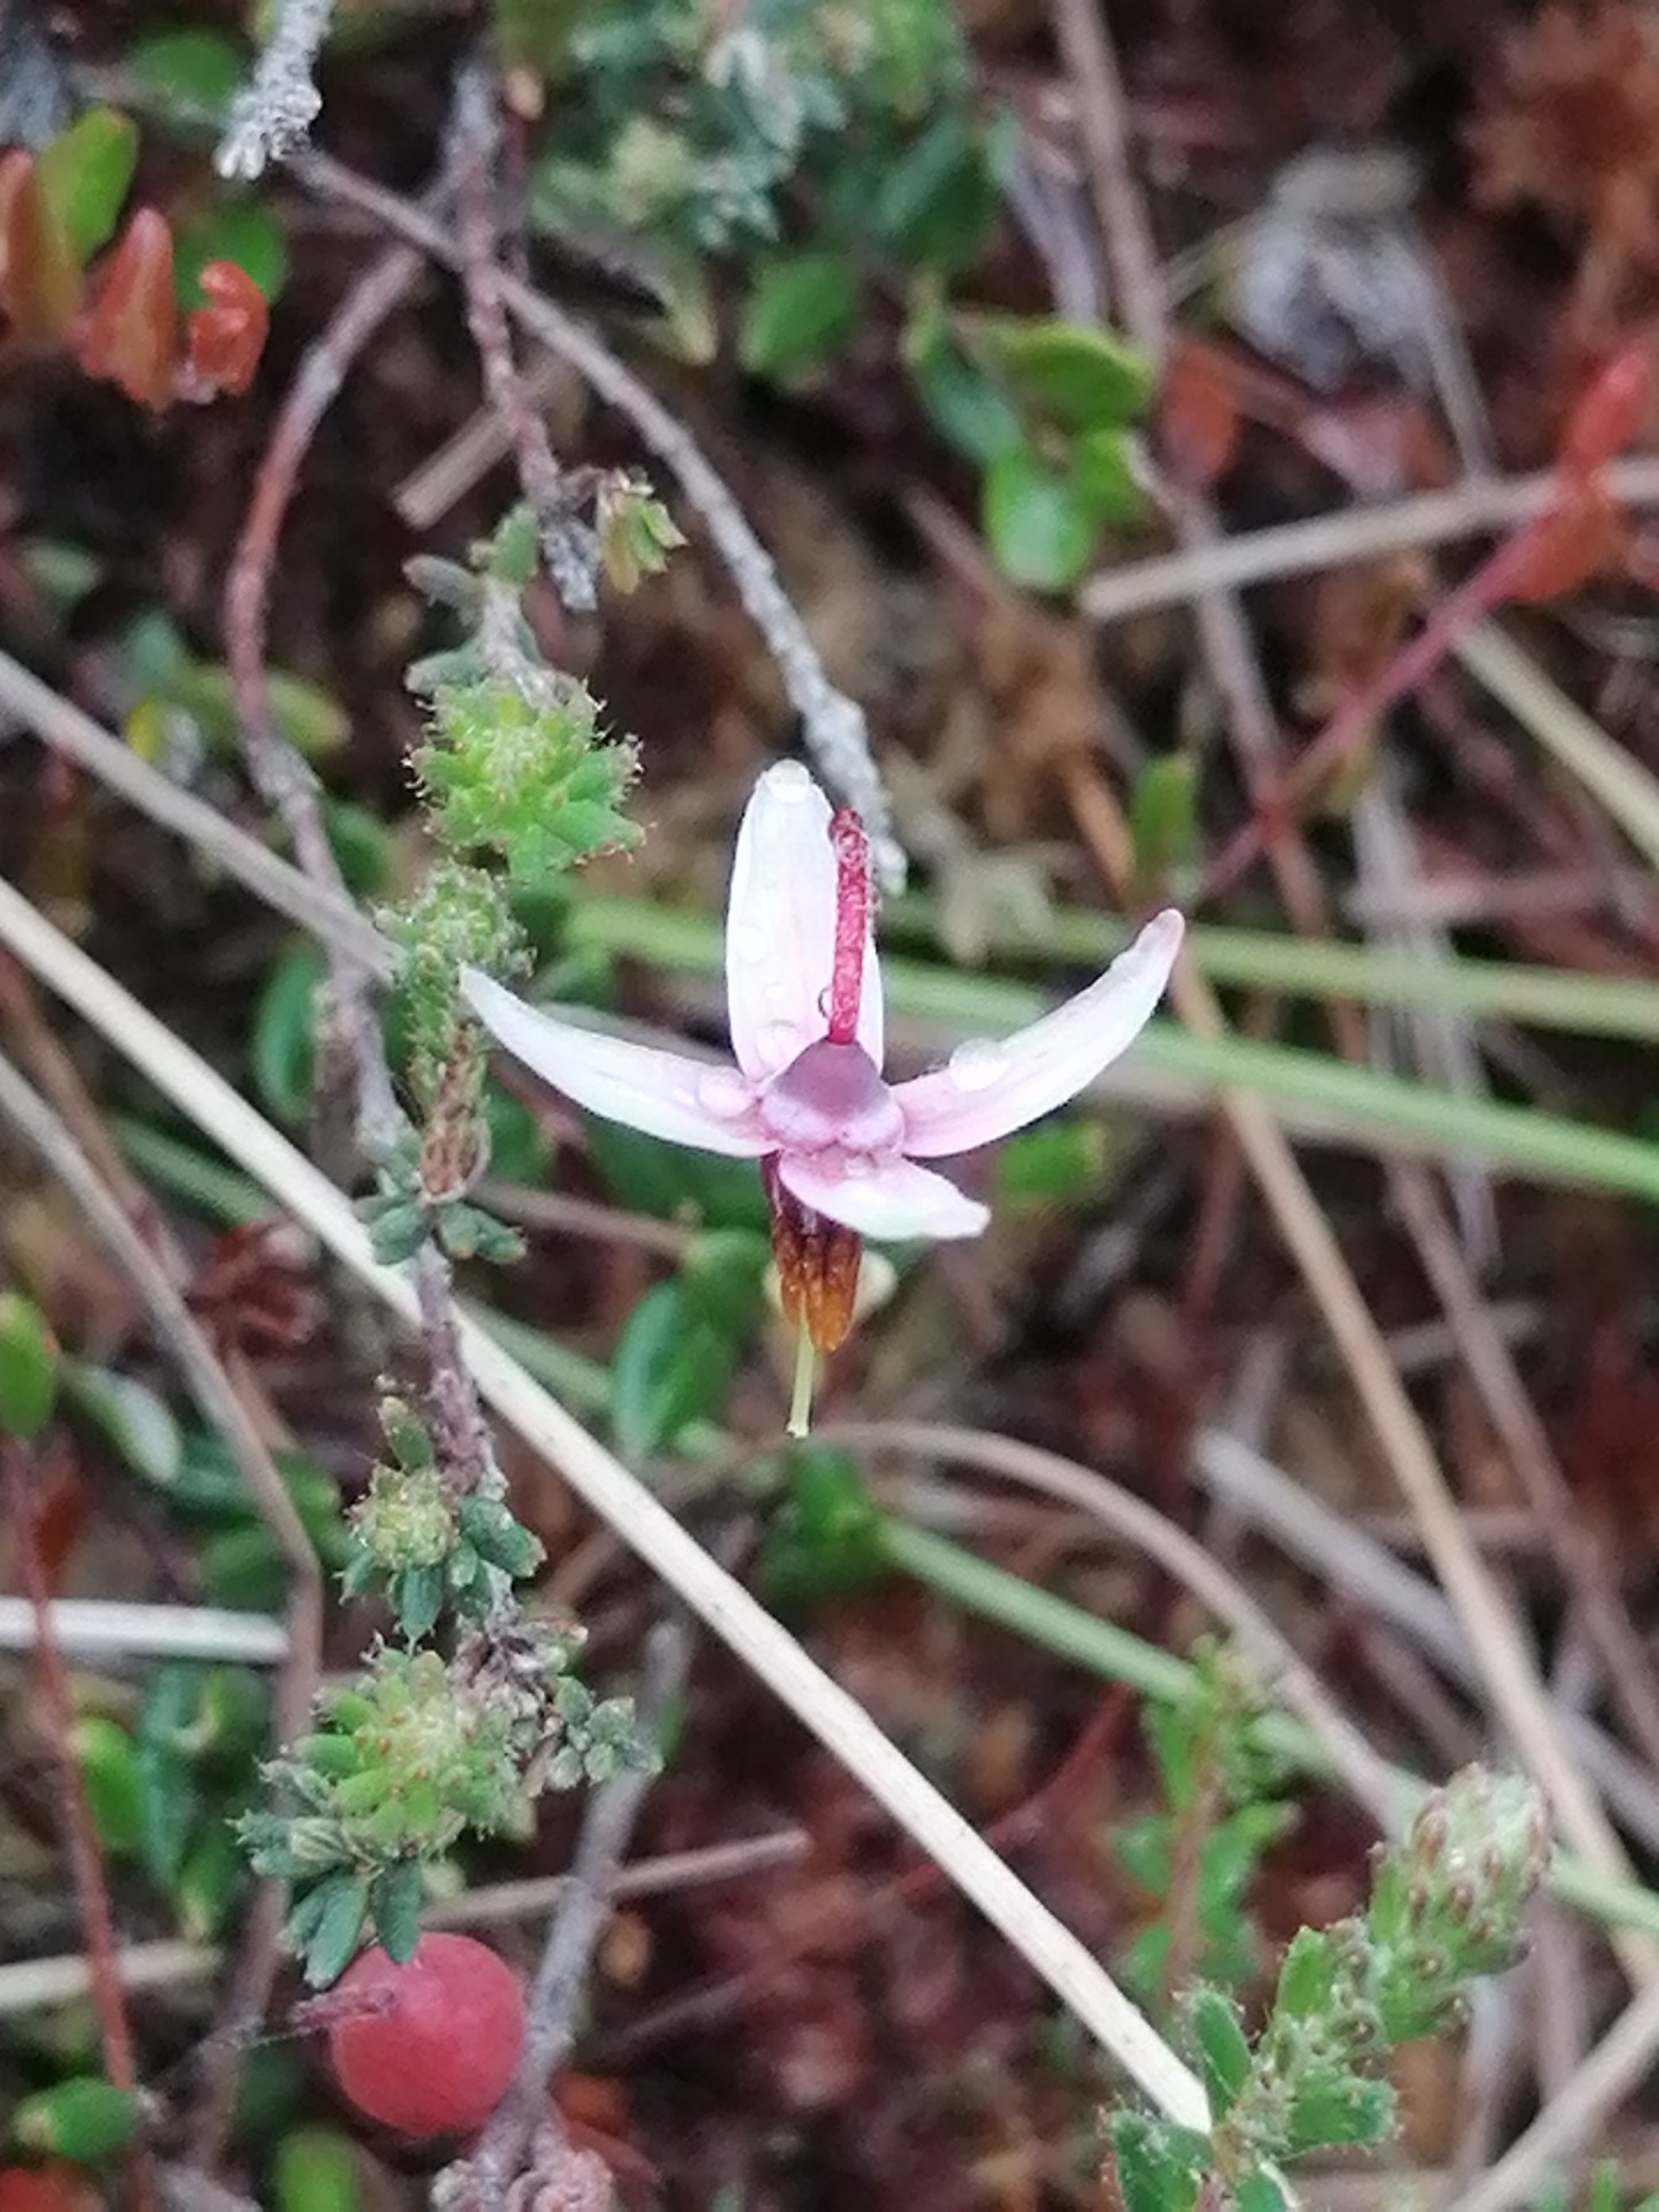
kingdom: Plantae
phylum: Tracheophyta
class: Magnoliopsida
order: Ericales
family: Ericaceae
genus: Vaccinium
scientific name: Vaccinium oxycoccos
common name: Tranebær
